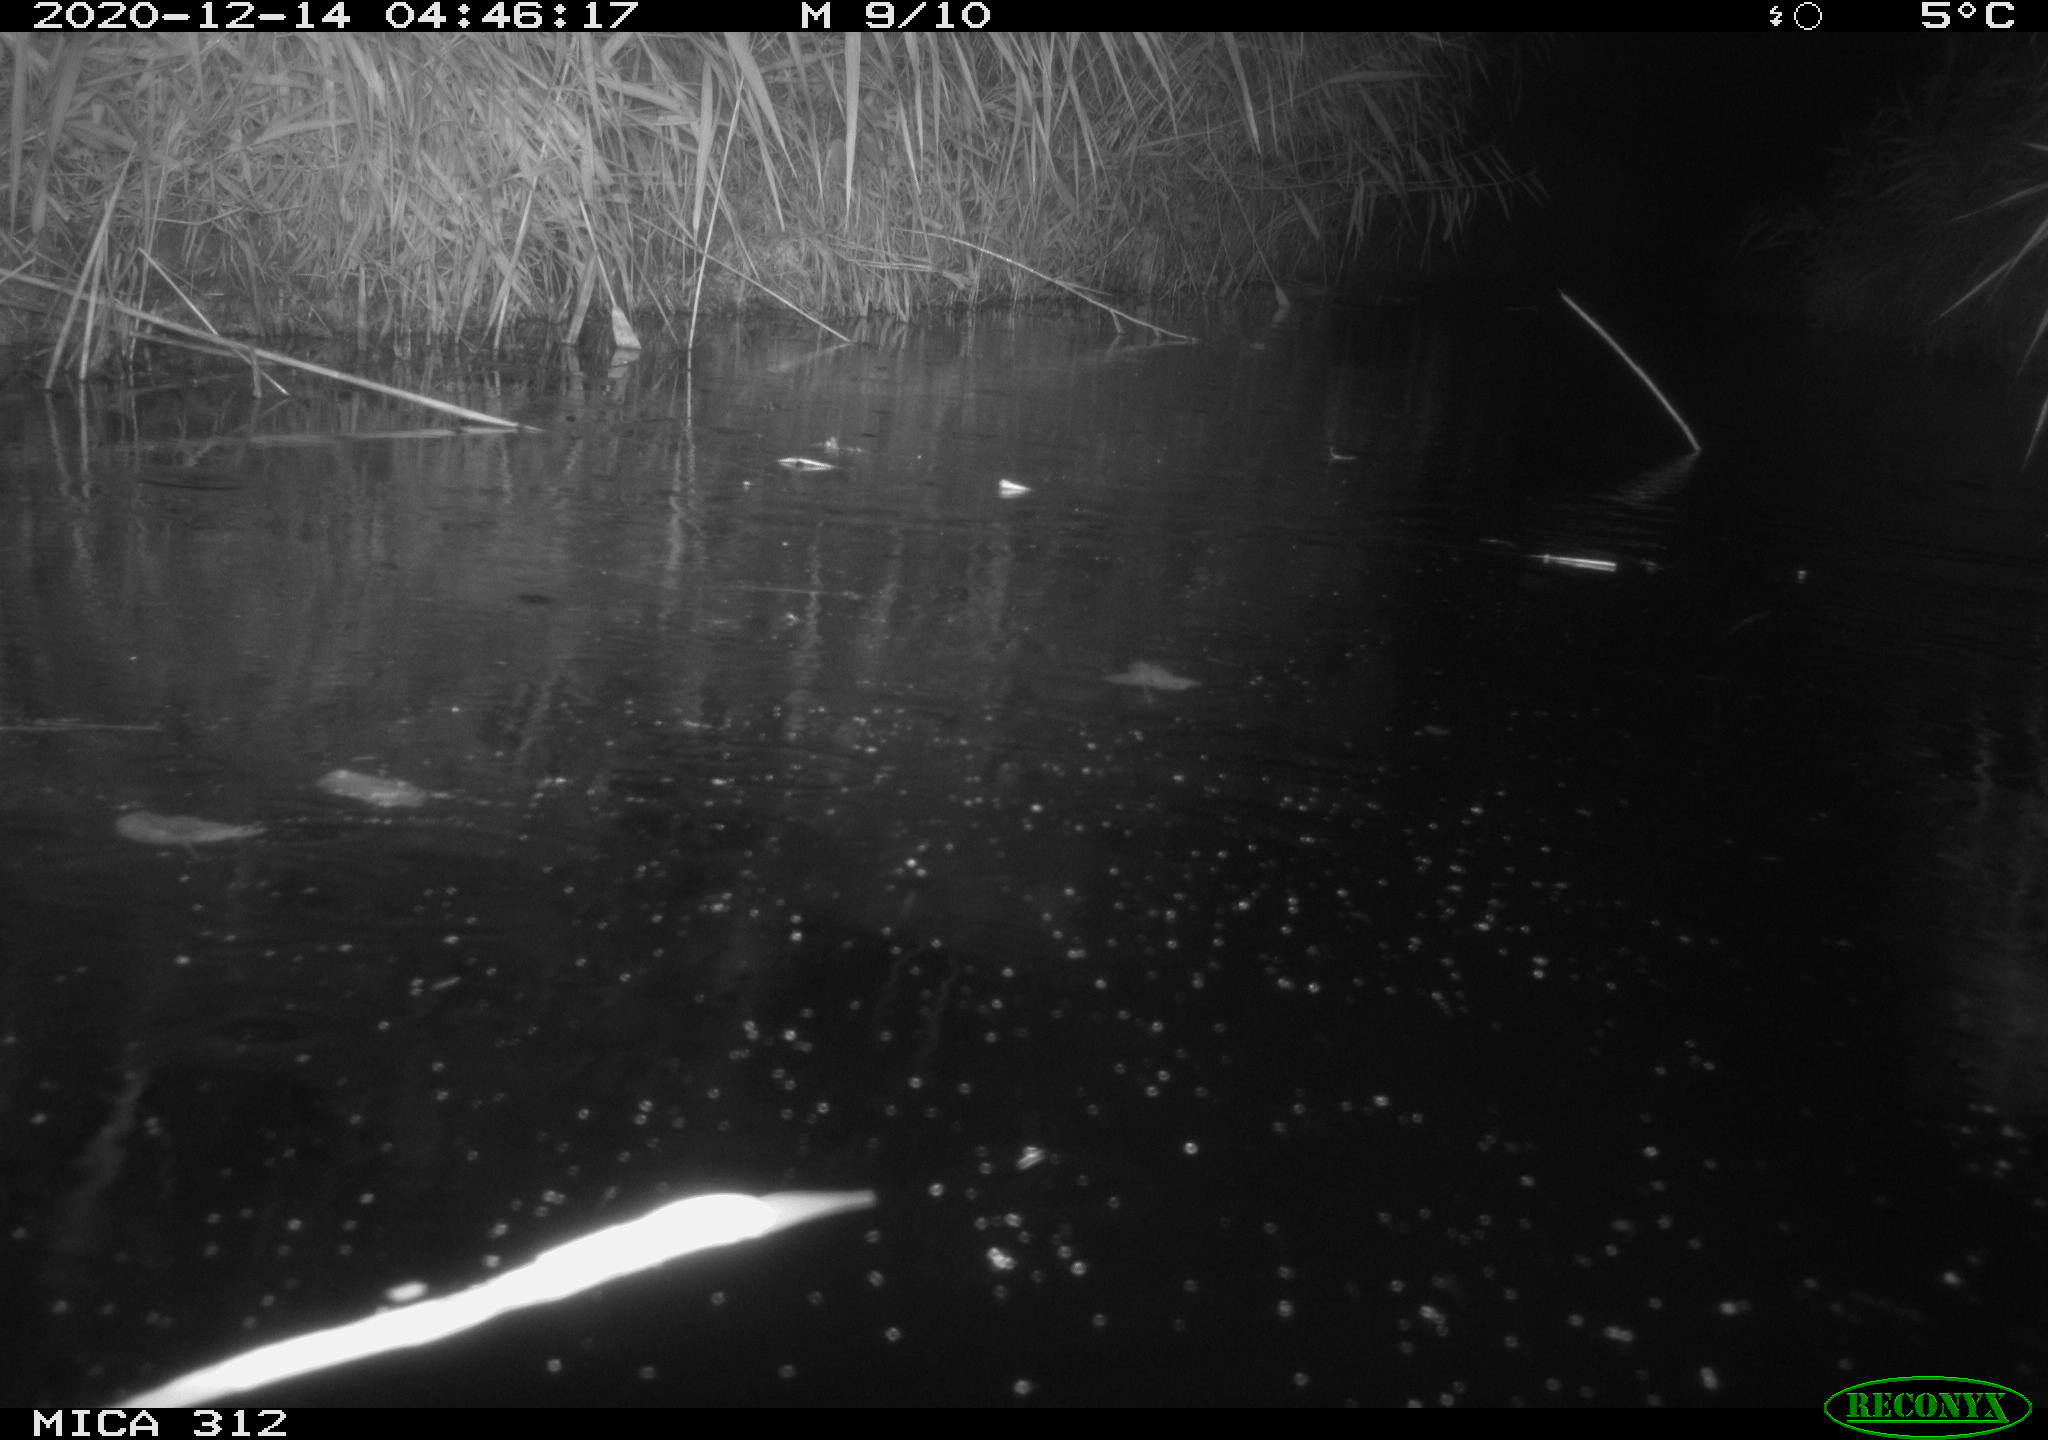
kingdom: Animalia
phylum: Chordata
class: Mammalia
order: Rodentia
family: Muridae
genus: Rattus
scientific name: Rattus norvegicus
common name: Brown rat
